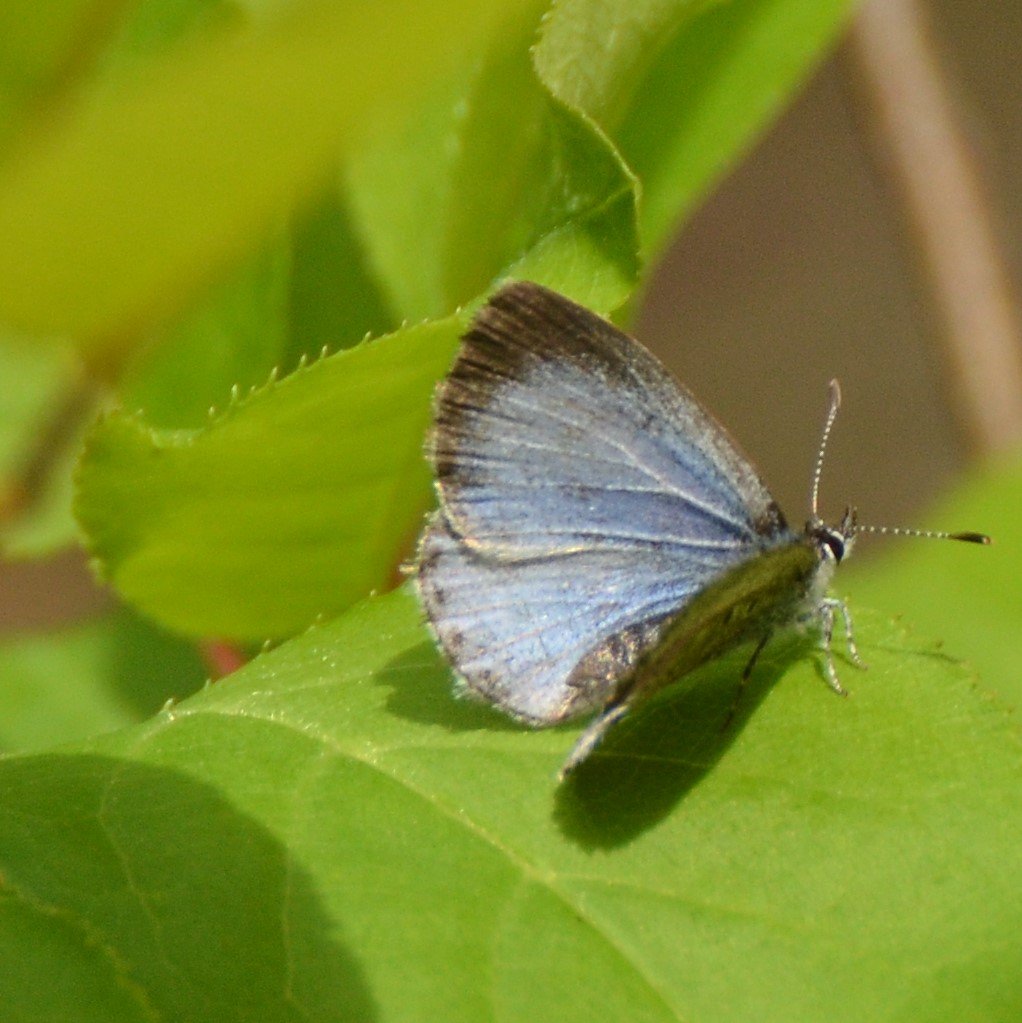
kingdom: Animalia
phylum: Arthropoda
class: Insecta
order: Lepidoptera
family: Lycaenidae
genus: Celastrina
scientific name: Celastrina lucia
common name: Northern Spring Azure
